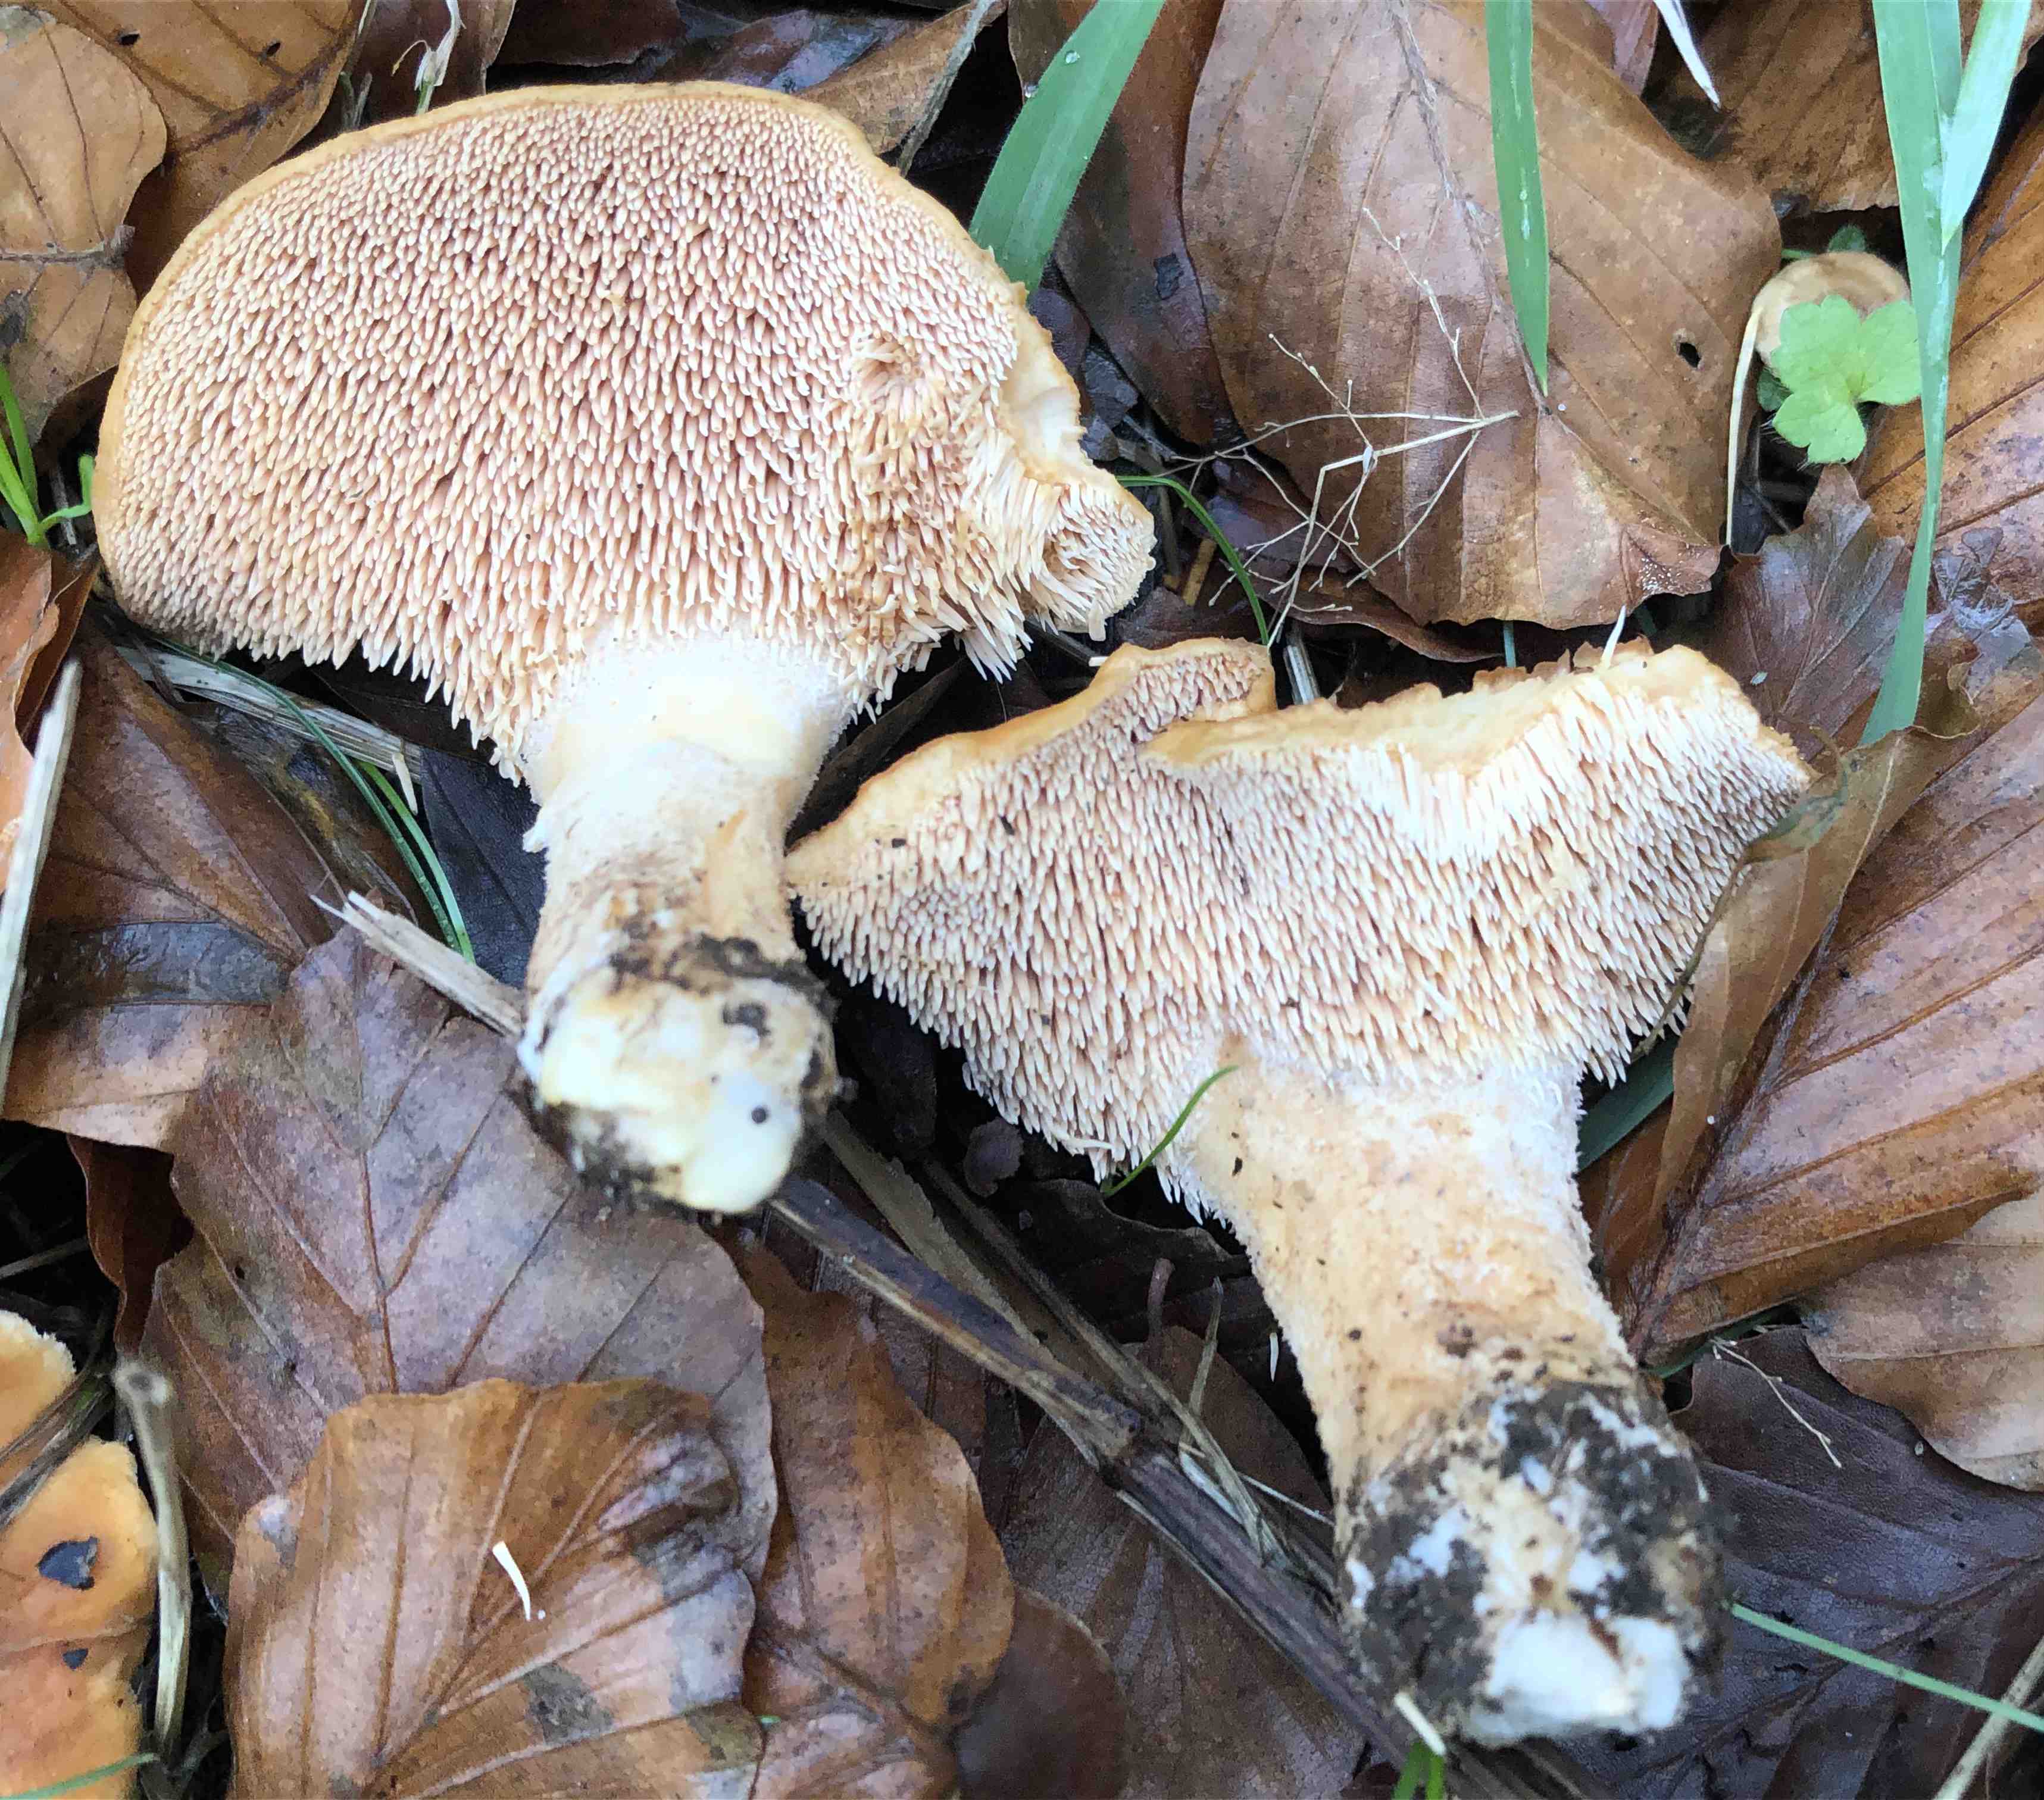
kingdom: Fungi
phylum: Basidiomycota
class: Agaricomycetes
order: Cantharellales
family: Hydnaceae
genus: Hydnum
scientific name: Hydnum
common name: pigsvamp
